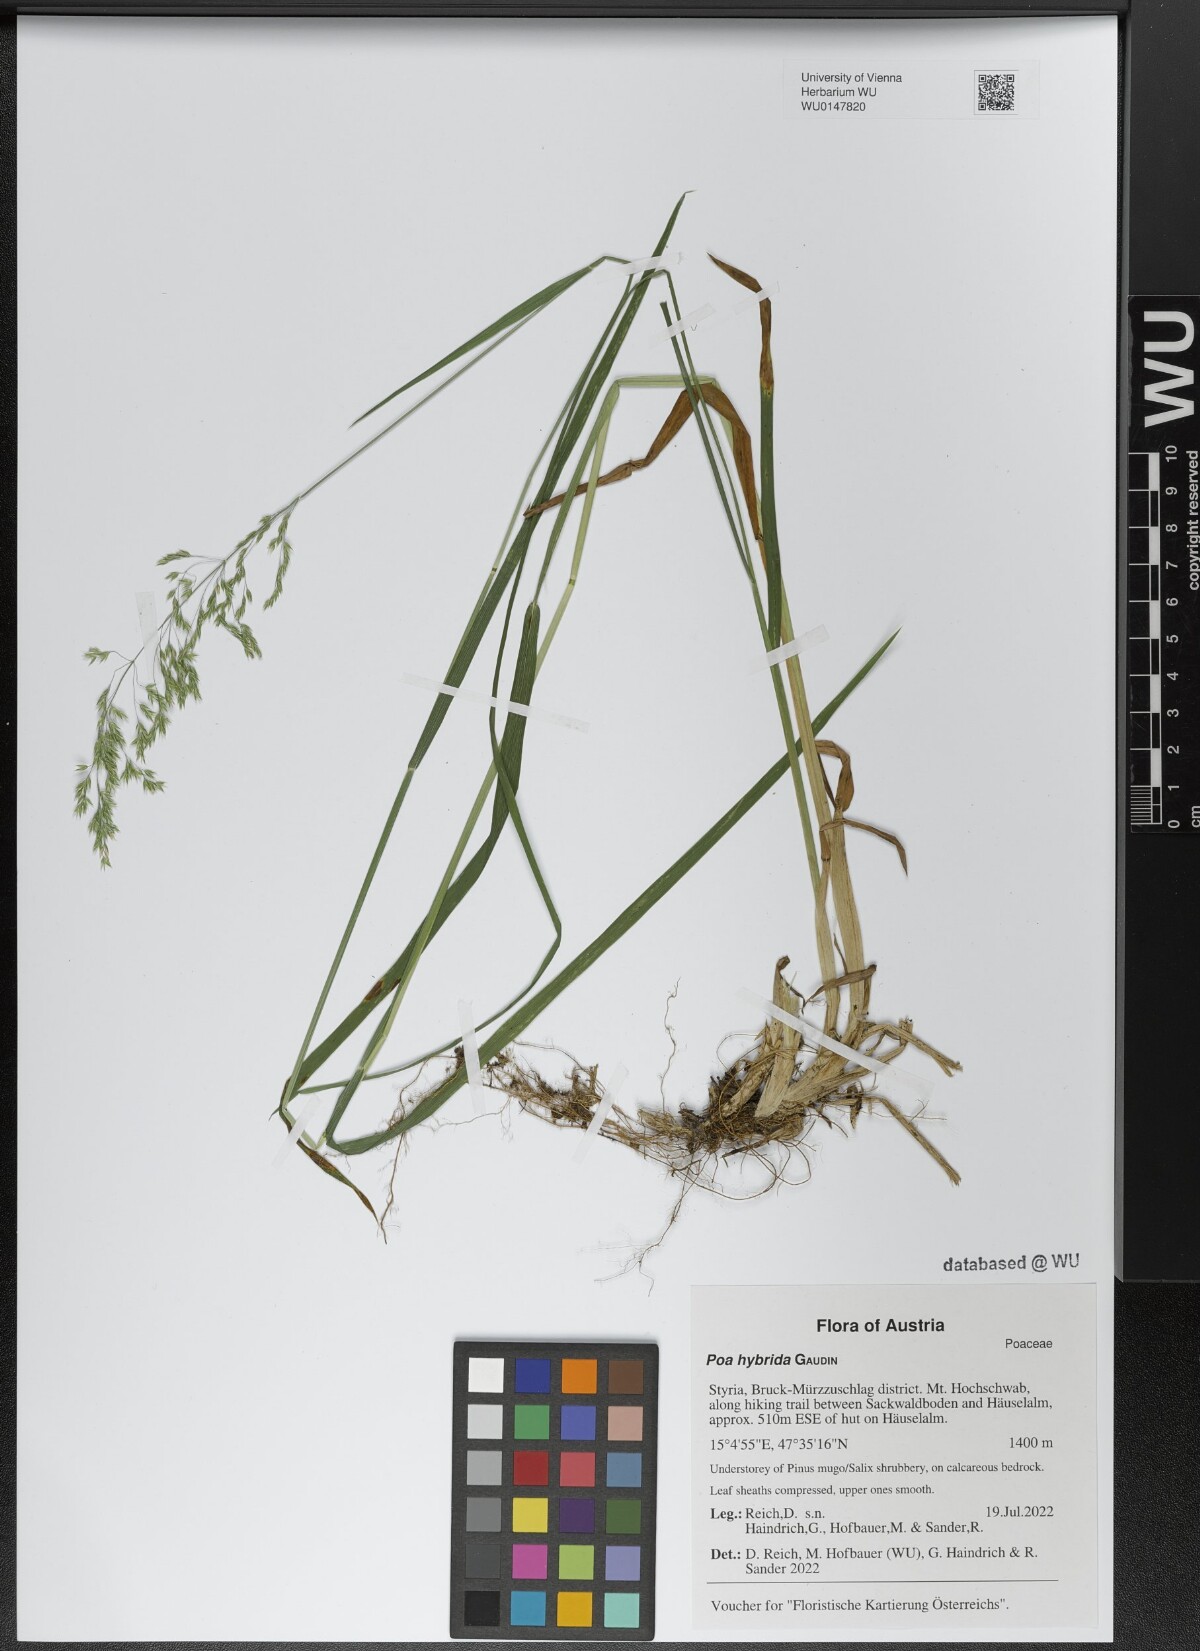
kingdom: Plantae
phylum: Tracheophyta
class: Liliopsida
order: Poales
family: Poaceae
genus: Poa
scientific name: Poa hybrida
